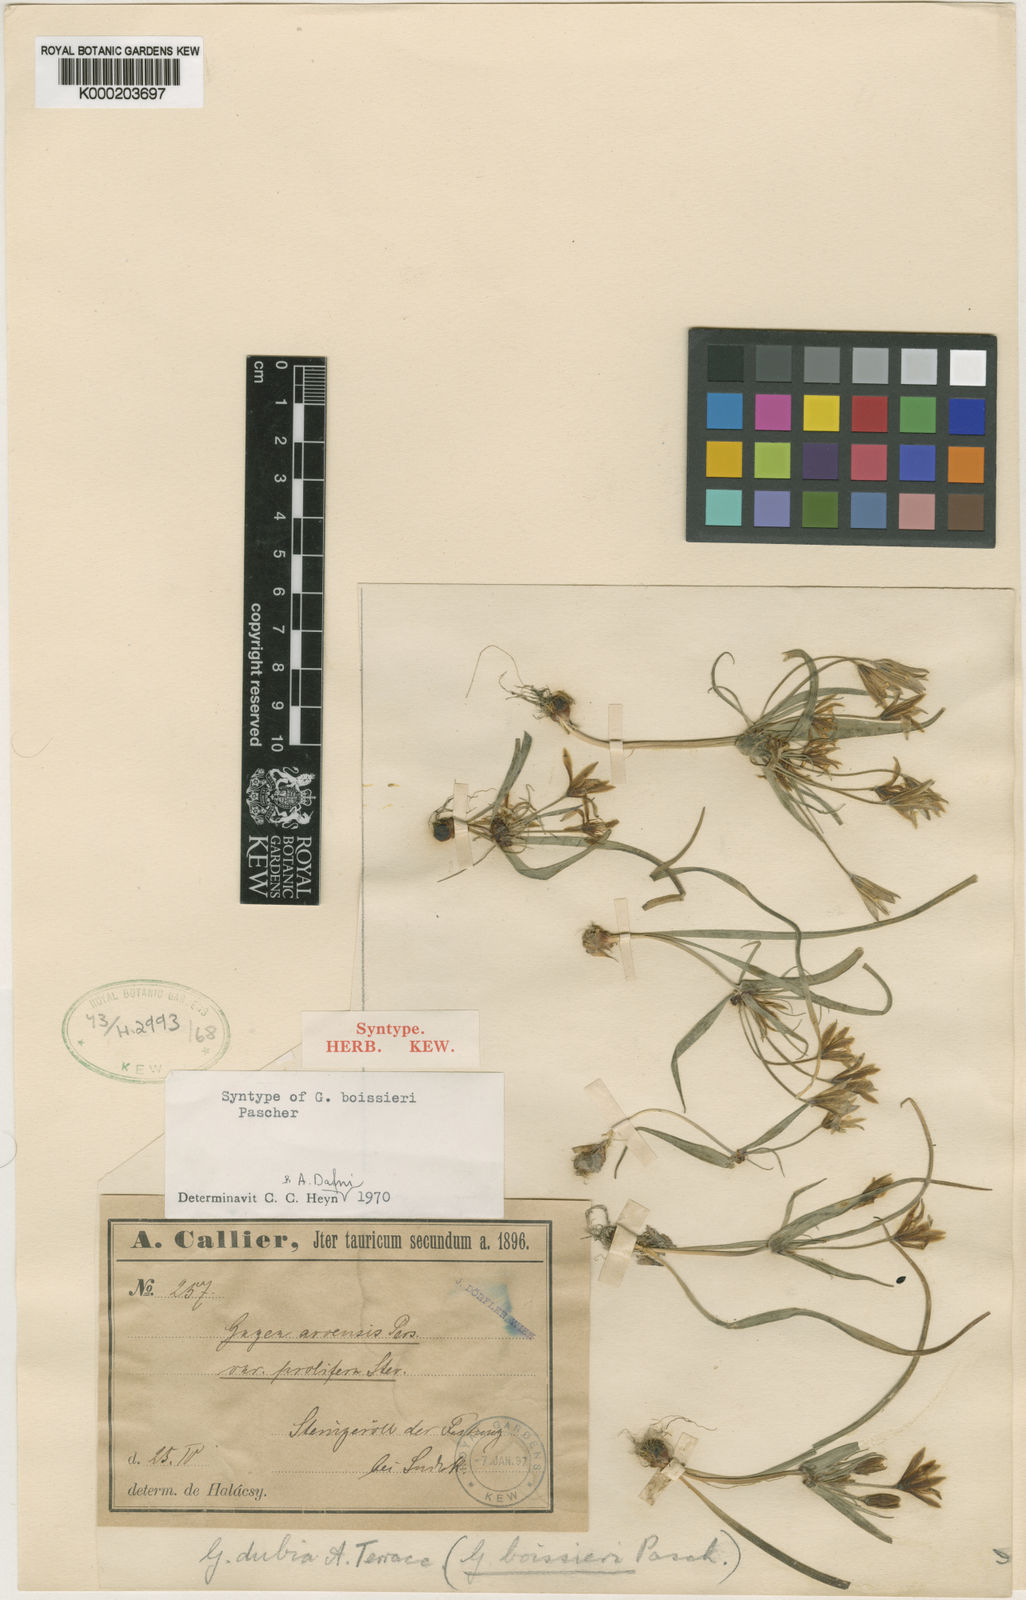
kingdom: Plantae
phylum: Tracheophyta
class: Liliopsida
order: Liliales
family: Liliaceae
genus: Gagea
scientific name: Gagea dubia
